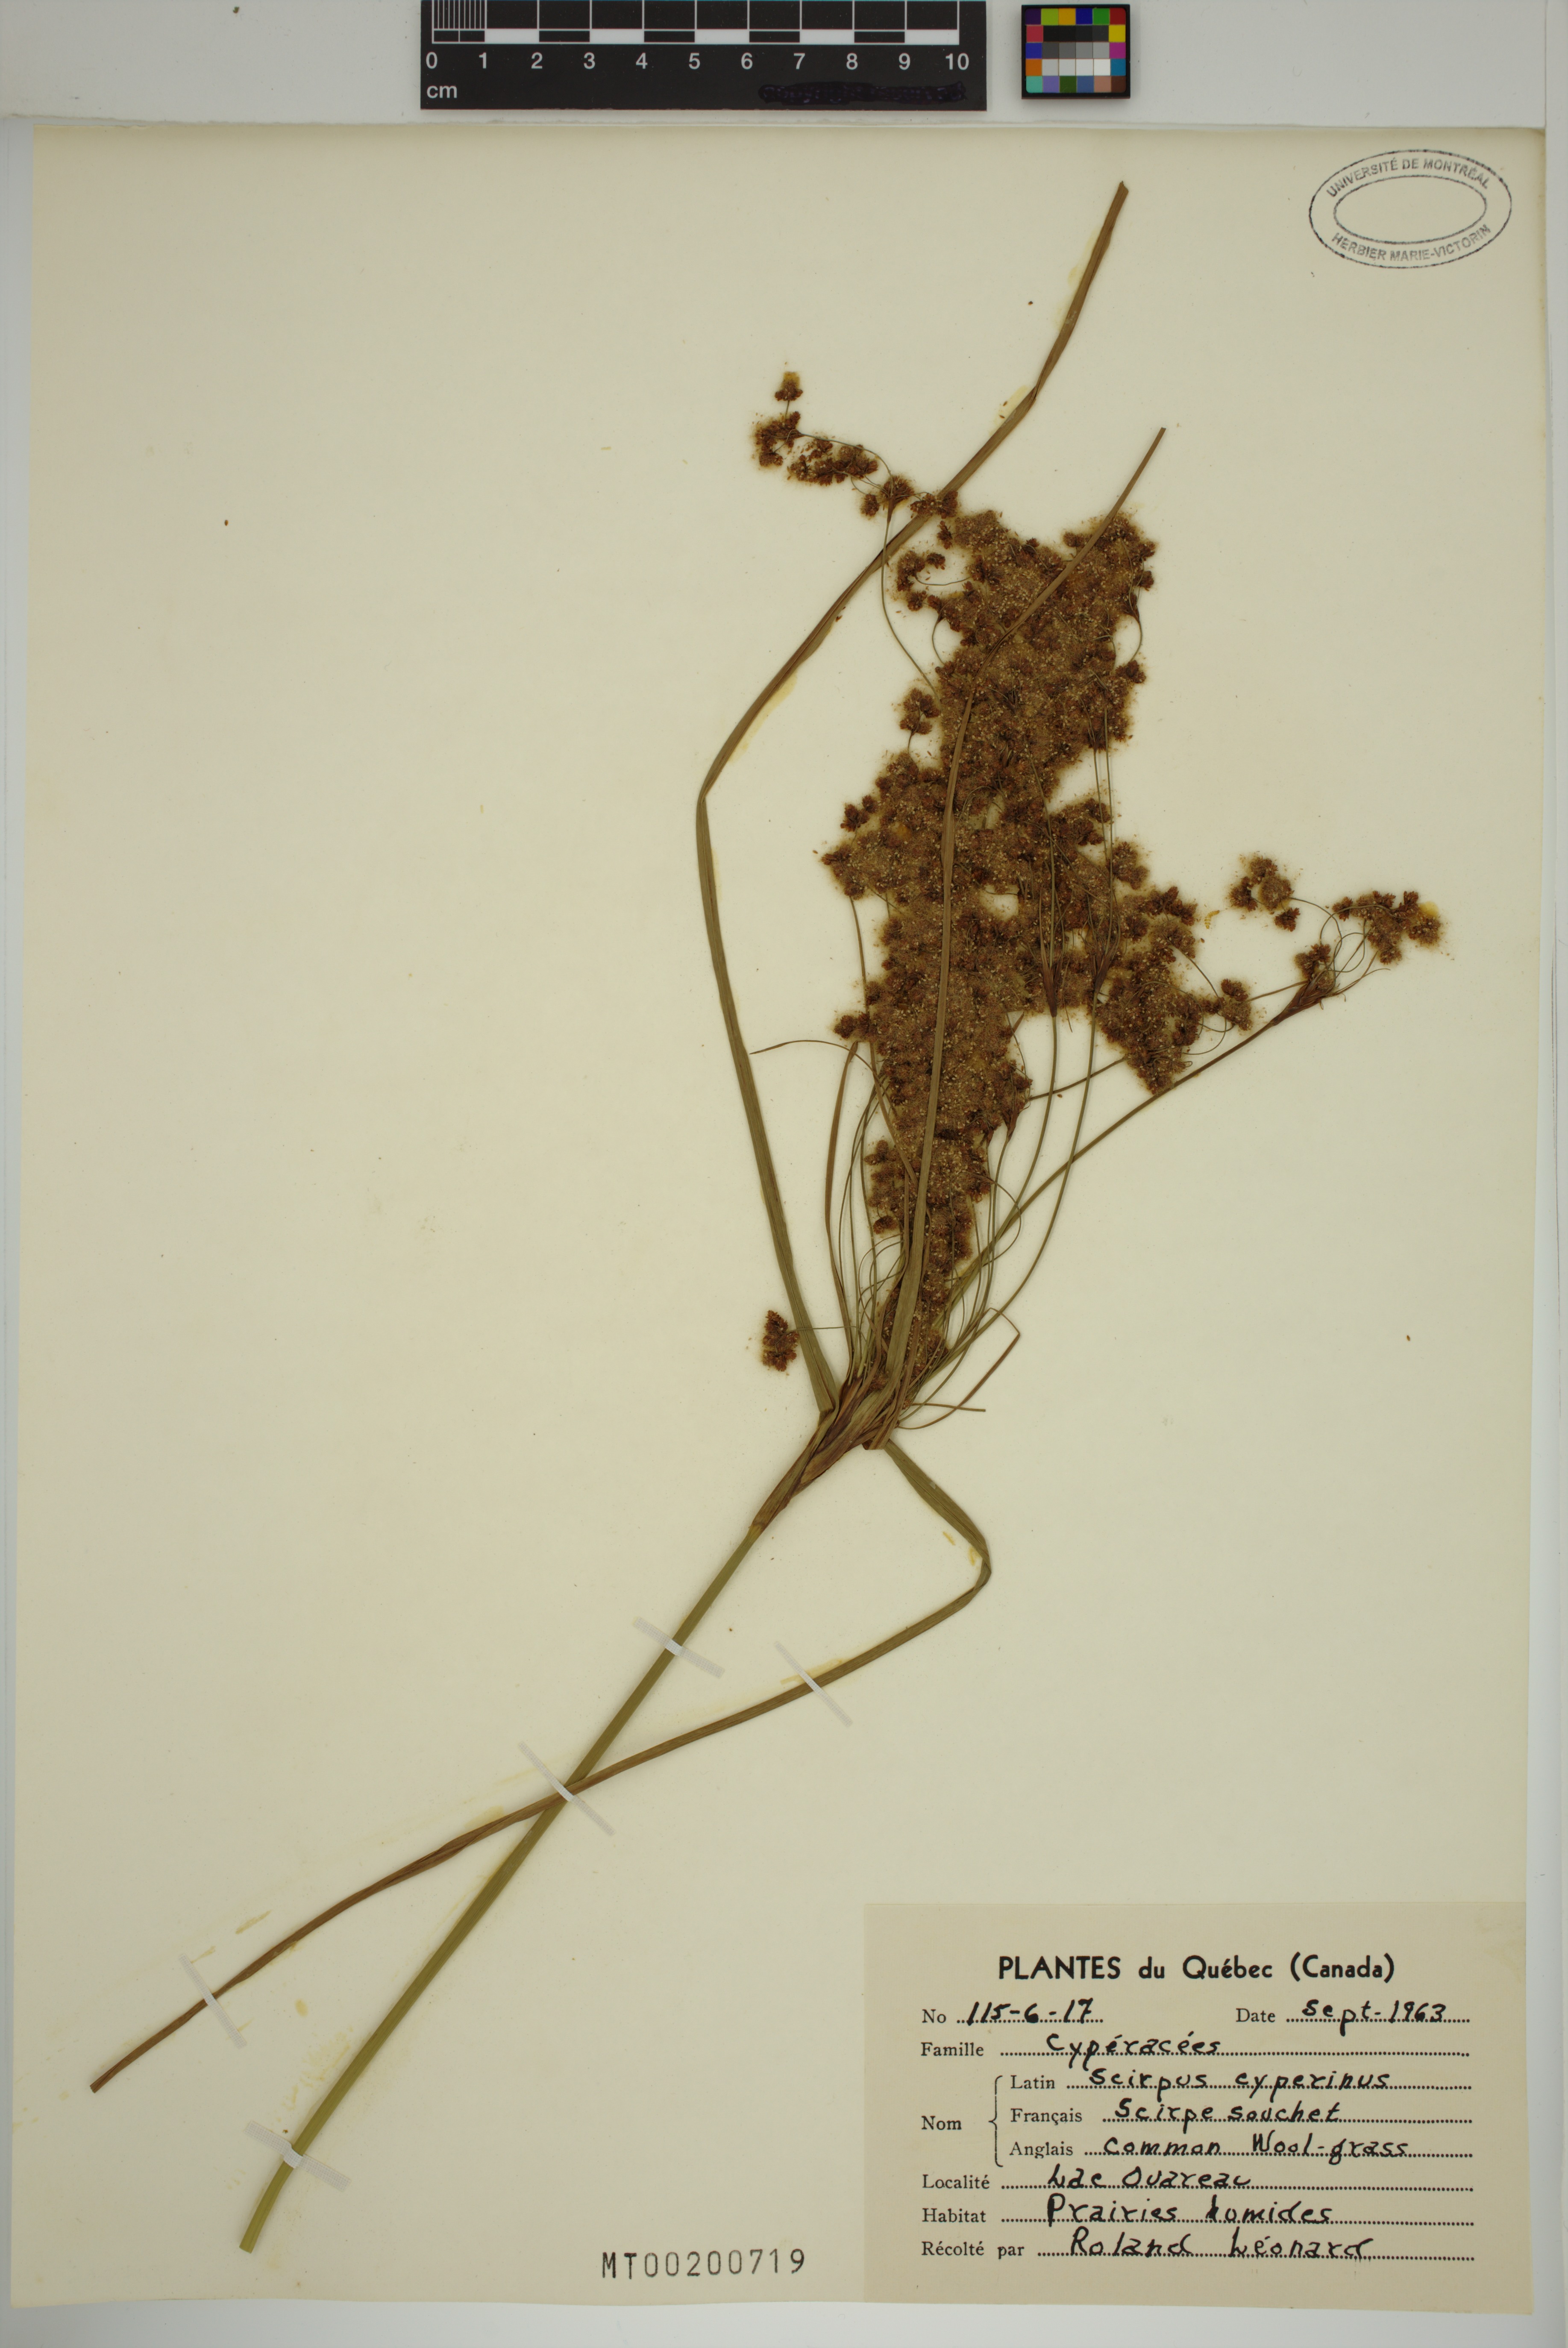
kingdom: Plantae
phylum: Tracheophyta
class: Liliopsida
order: Poales
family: Cyperaceae
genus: Scirpus
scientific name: Scirpus cyperinus
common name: Black-sheathed bulrush
